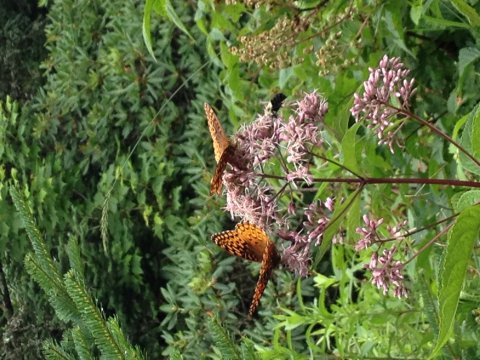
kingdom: Animalia
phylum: Arthropoda
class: Insecta
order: Lepidoptera
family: Nymphalidae
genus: Speyeria
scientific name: Speyeria cybele
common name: Great Spangled Fritillary
